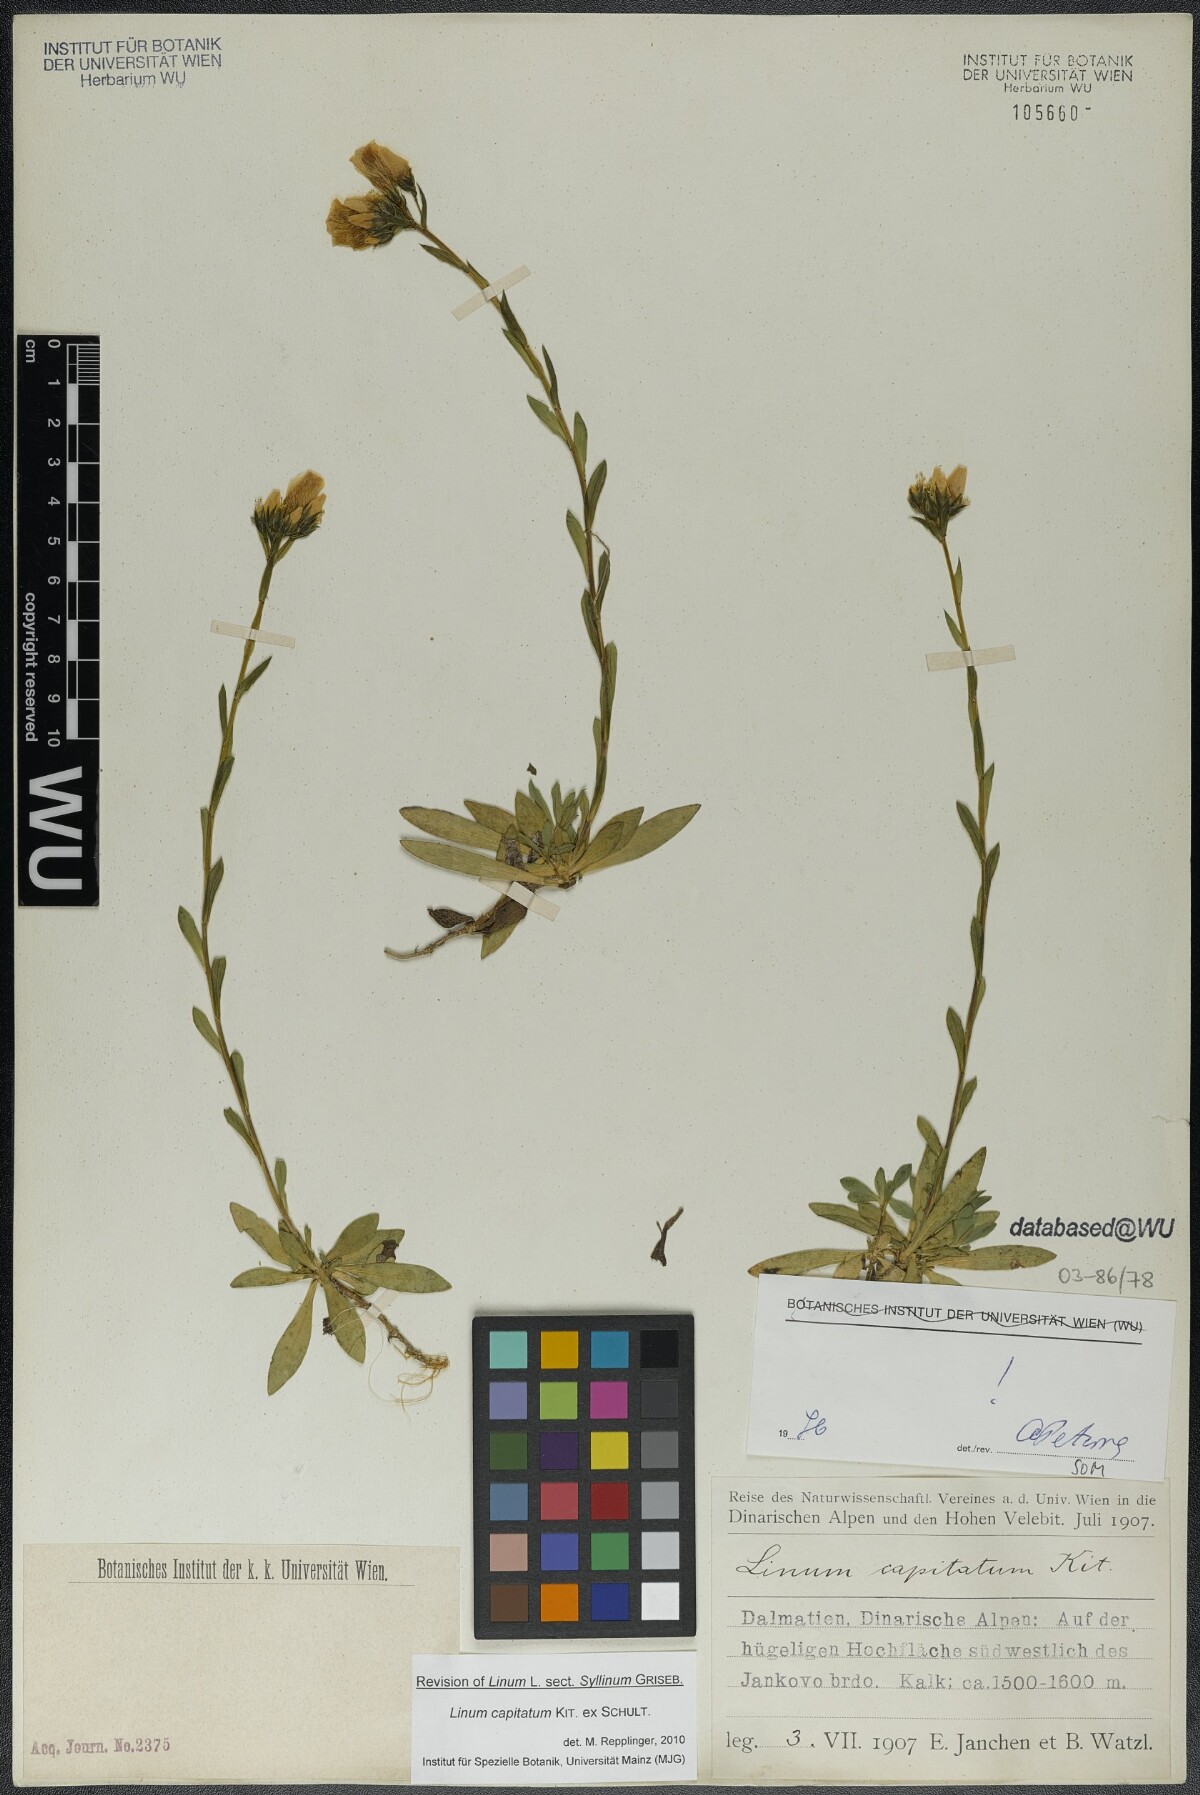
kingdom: Plantae
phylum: Tracheophyta
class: Magnoliopsida
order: Malpighiales
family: Linaceae
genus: Linum
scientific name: Linum capitatum
